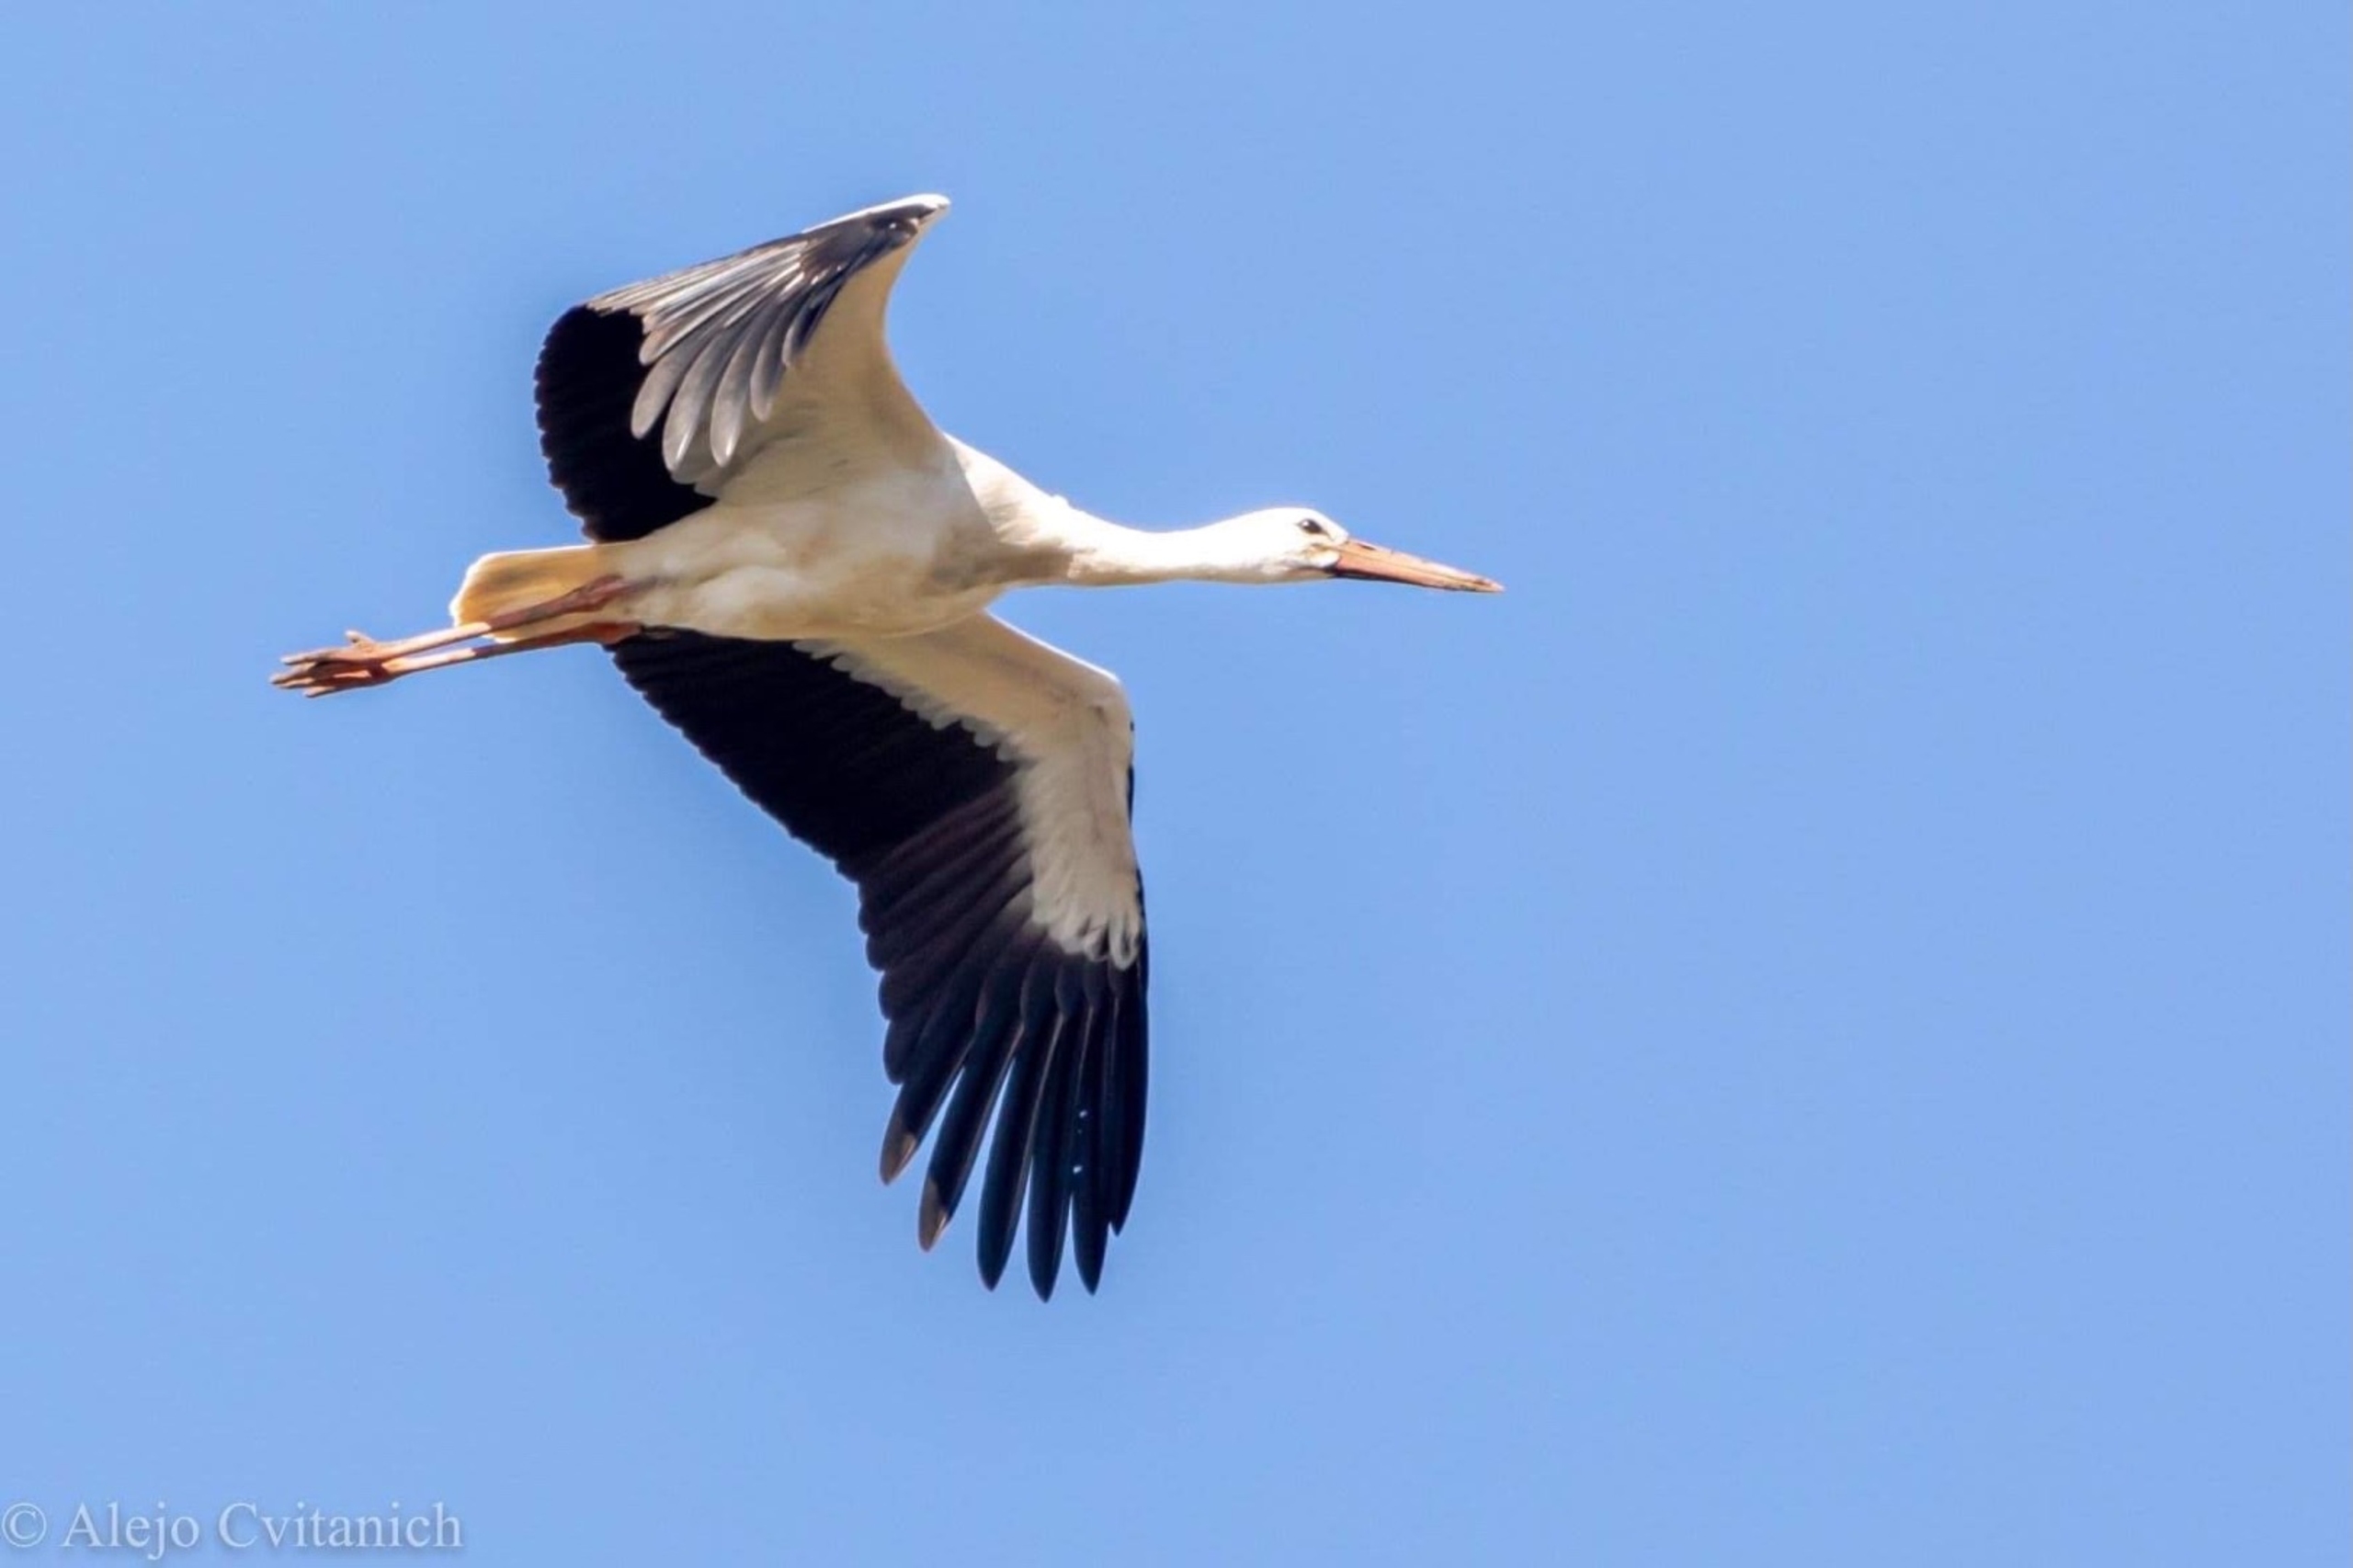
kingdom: Animalia
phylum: Chordata
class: Aves
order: Ciconiiformes
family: Ciconiidae
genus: Ciconia
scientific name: Ciconia ciconia
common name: Hvid stork
